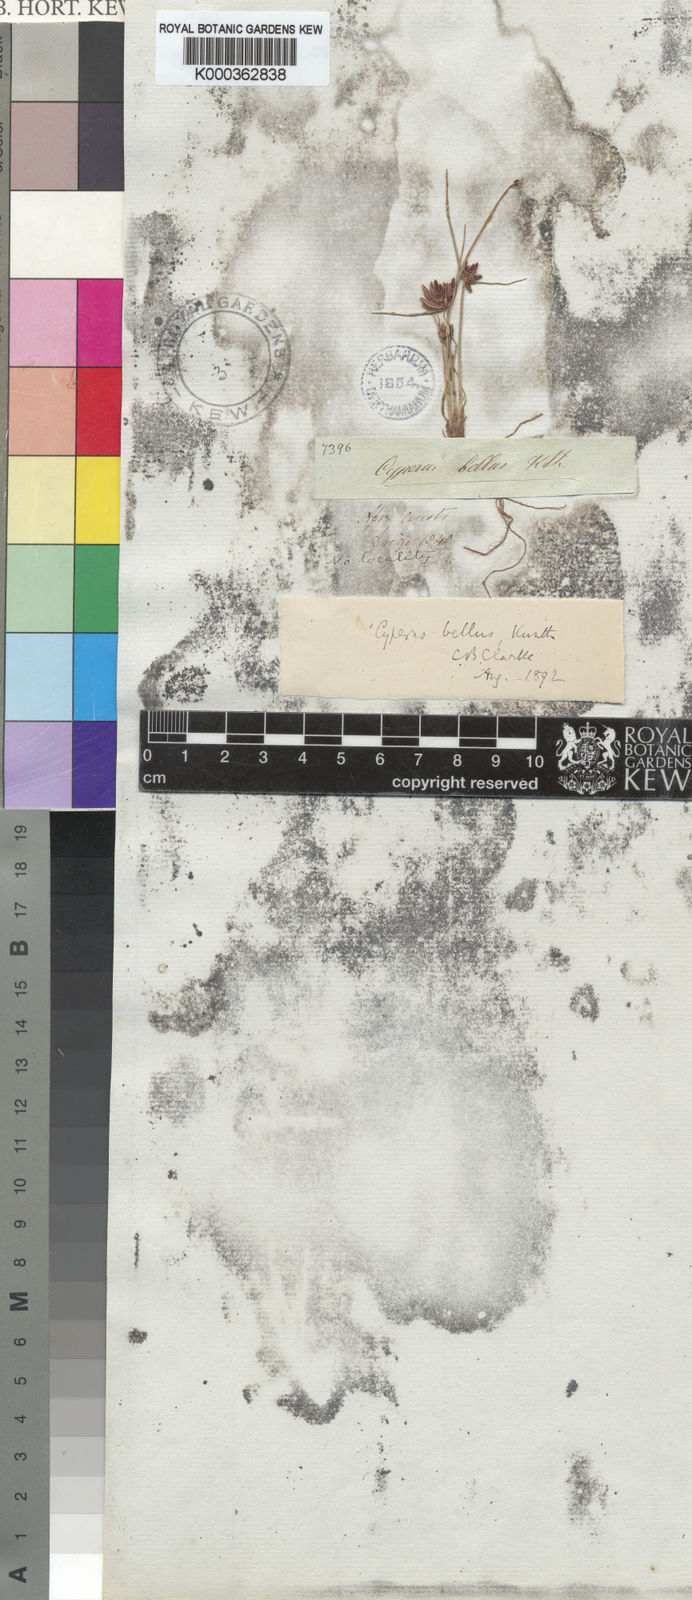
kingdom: Plantae
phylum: Tracheophyta
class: Liliopsida
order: Poales
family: Cyperaceae
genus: Cyperus
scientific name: Cyperus bellus
